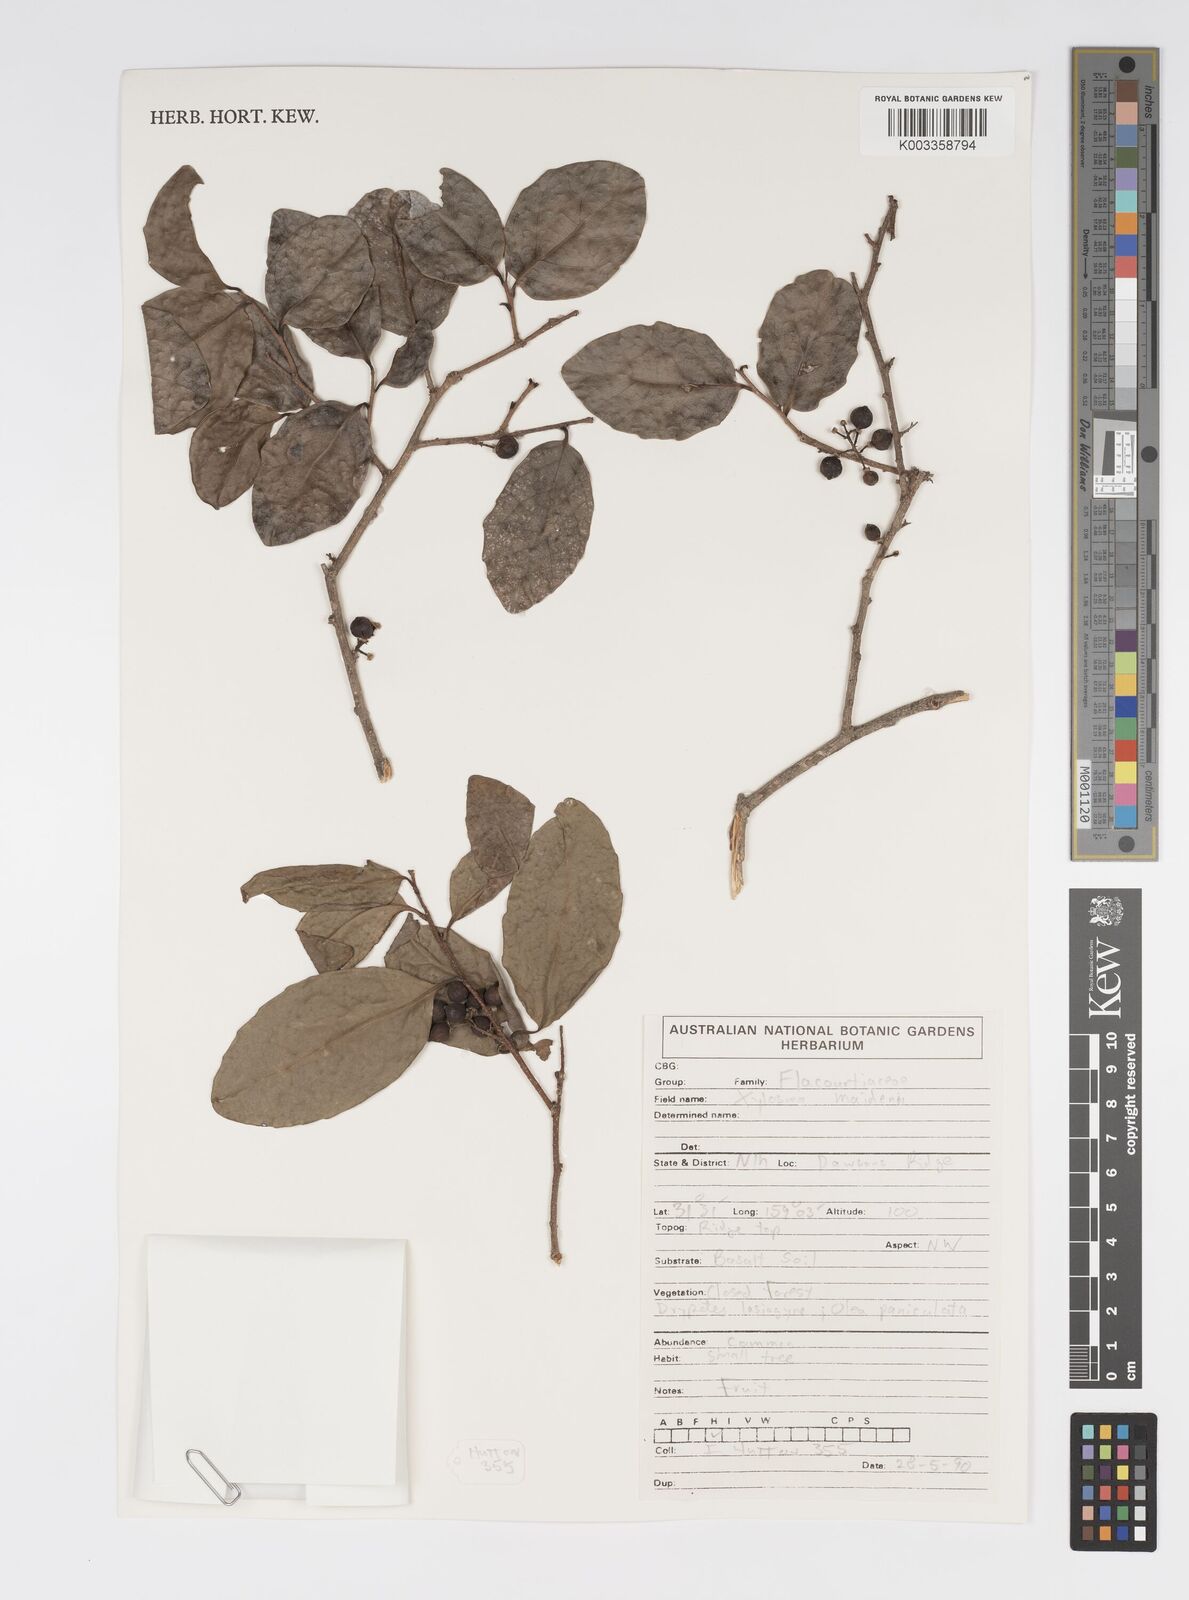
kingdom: Plantae
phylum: Tracheophyta
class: Magnoliopsida
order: Malpighiales
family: Salicaceae
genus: Xylosma
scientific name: Xylosma maidenii
